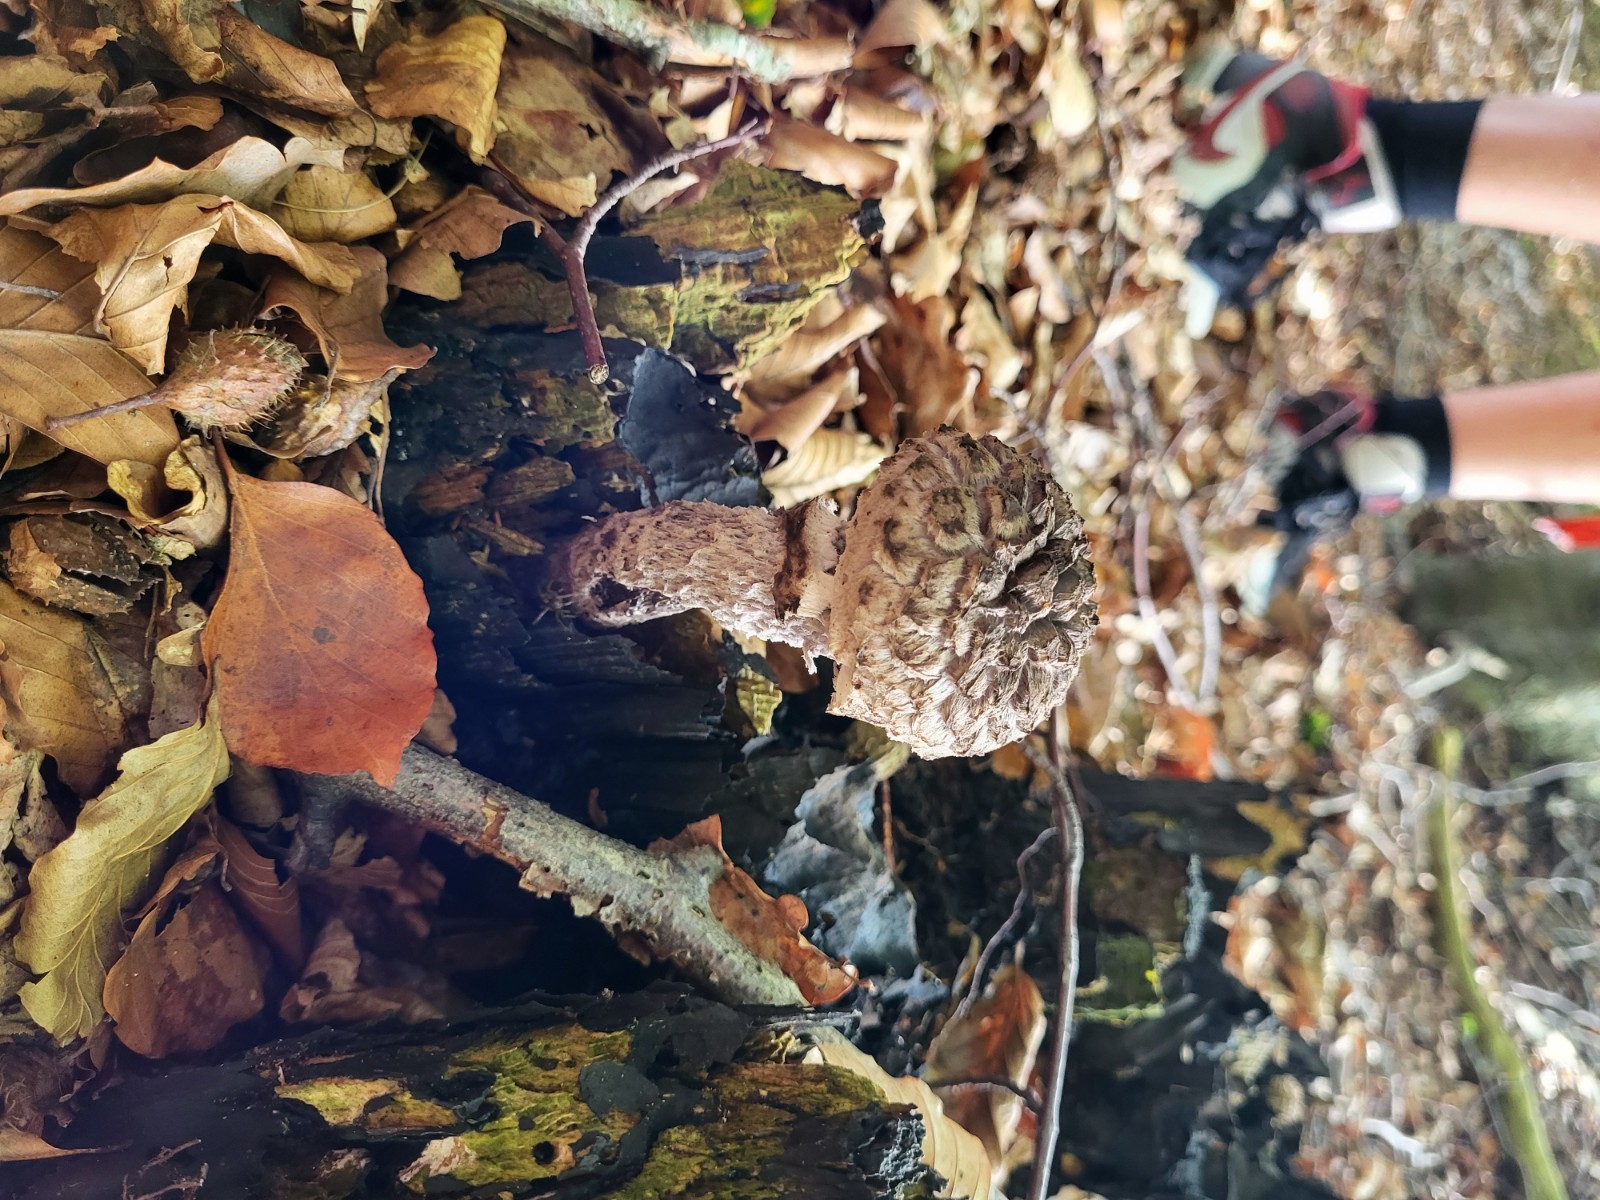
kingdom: Fungi
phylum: Basidiomycota
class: Agaricomycetes
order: Boletales
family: Boletaceae
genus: Strobilomyces
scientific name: Strobilomyces strobilaceus
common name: koglerørhat
